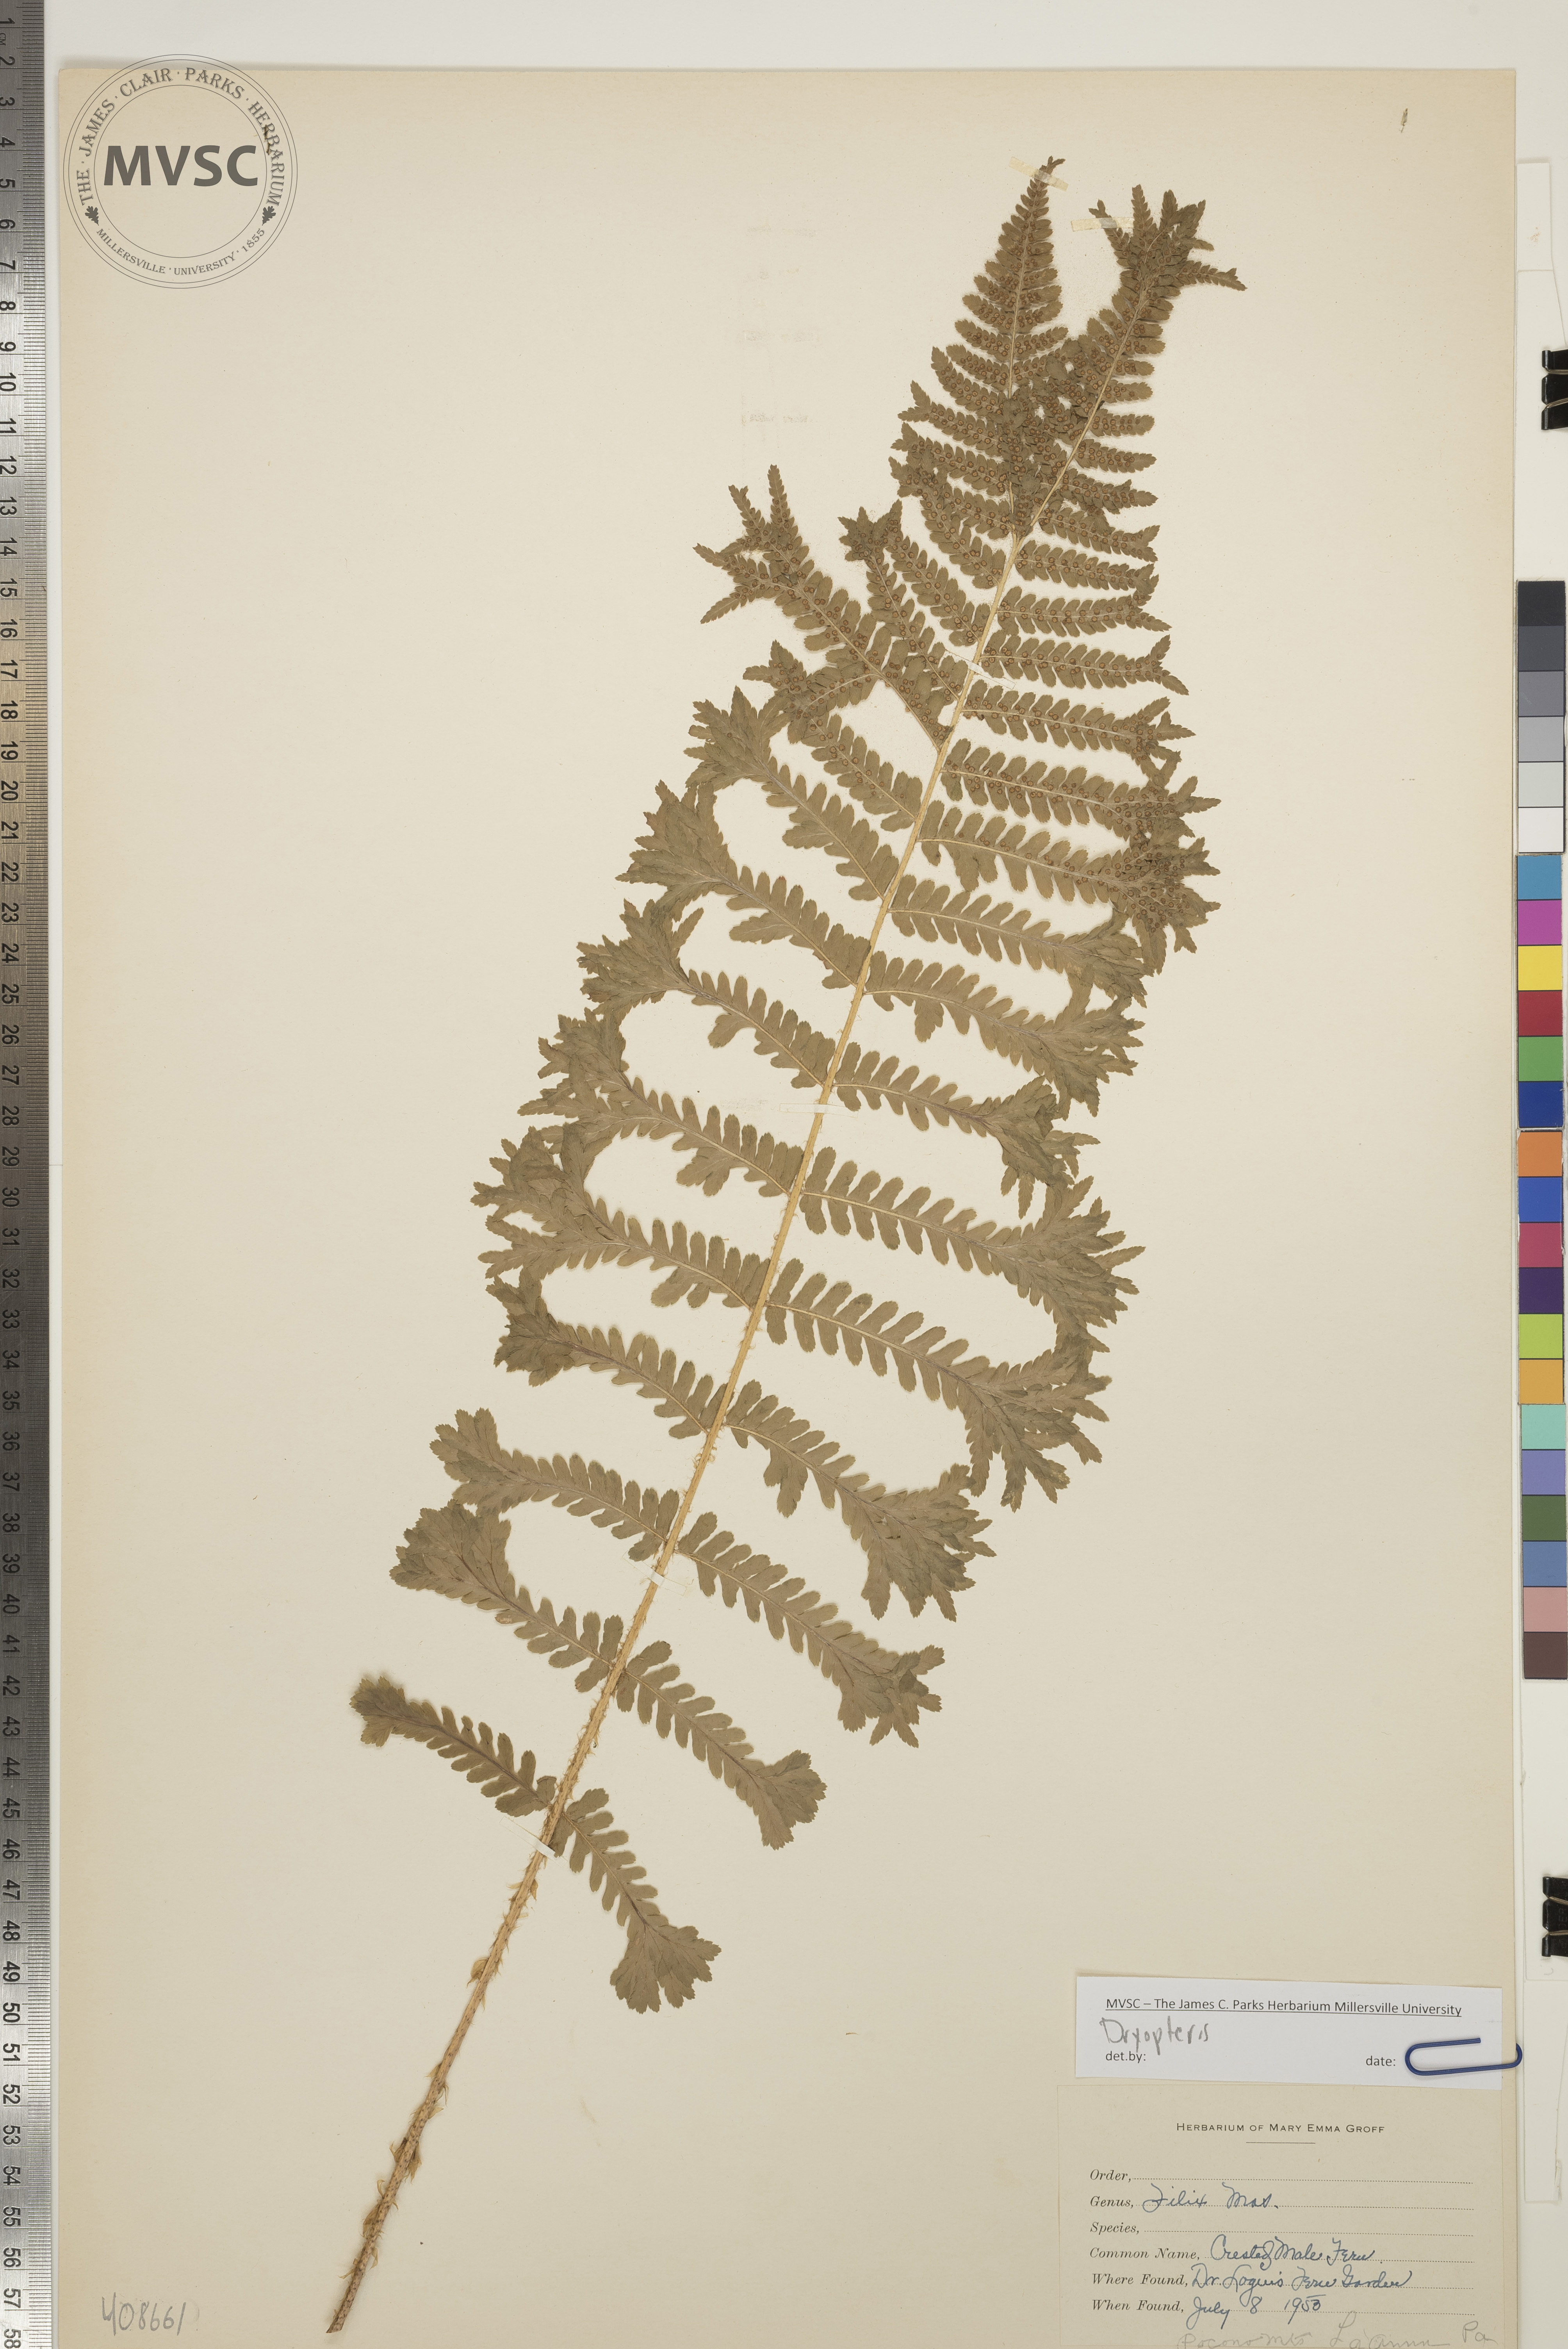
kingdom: Plantae
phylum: Tracheophyta
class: Polypodiopsida
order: Polypodiales
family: Dryopteridaceae
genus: Dryopteris
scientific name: Dryopteris filix-mas
